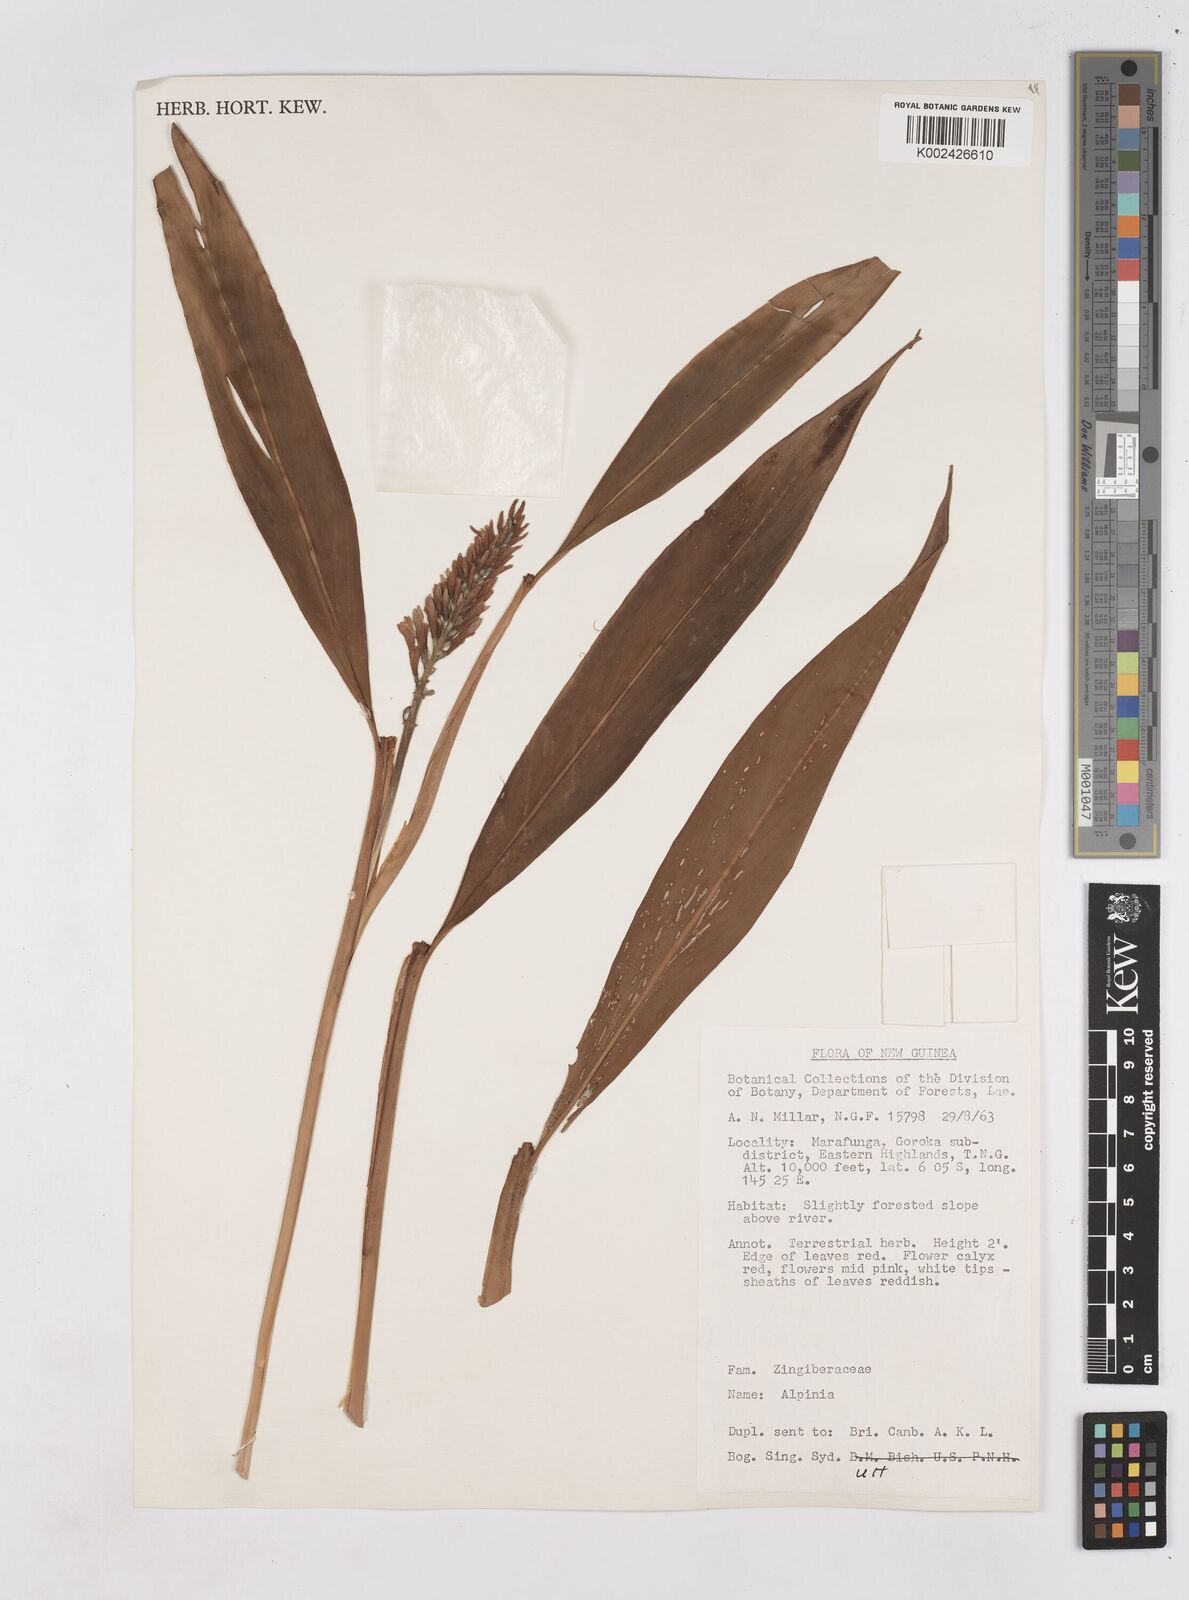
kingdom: Plantae
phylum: Tracheophyta
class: Liliopsida
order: Zingiberales
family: Zingiberaceae
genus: Riedelia
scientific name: Riedelia
